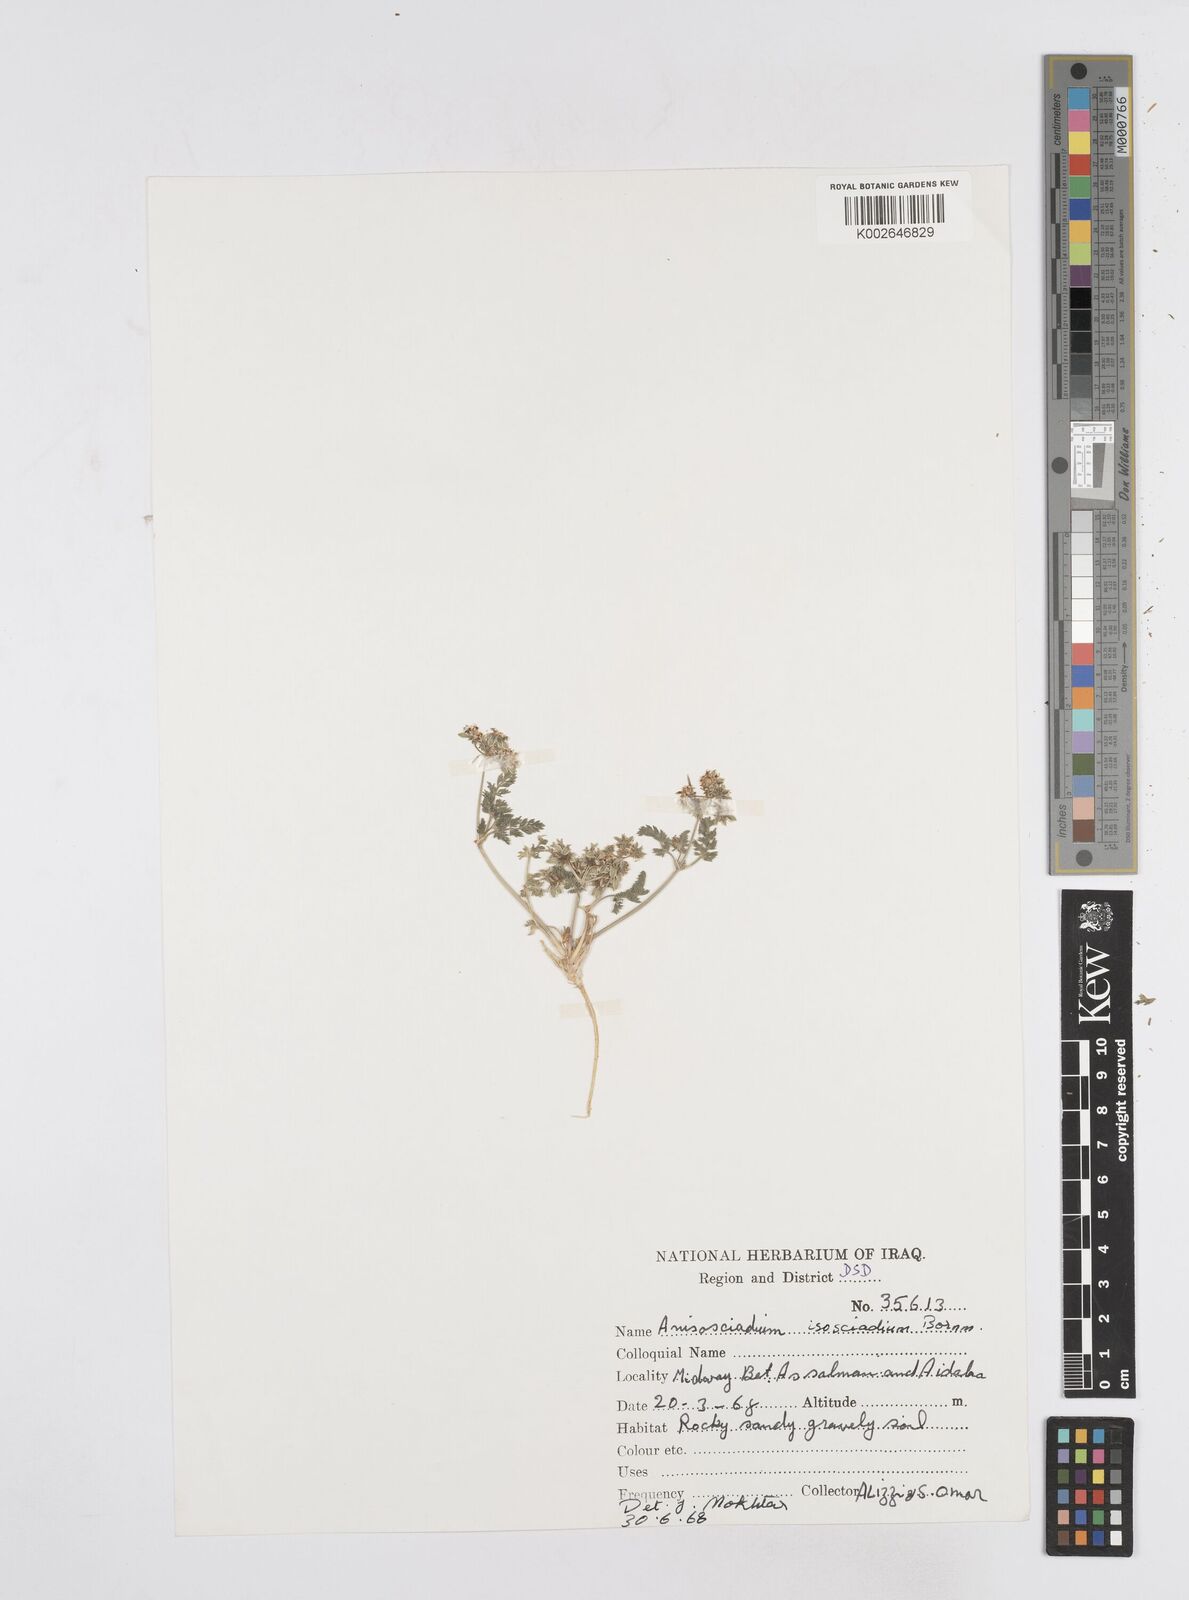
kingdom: Plantae
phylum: Tracheophyta
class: Magnoliopsida
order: Apiales
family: Apiaceae
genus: Anisosciadium
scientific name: Anisosciadium isosciadium
